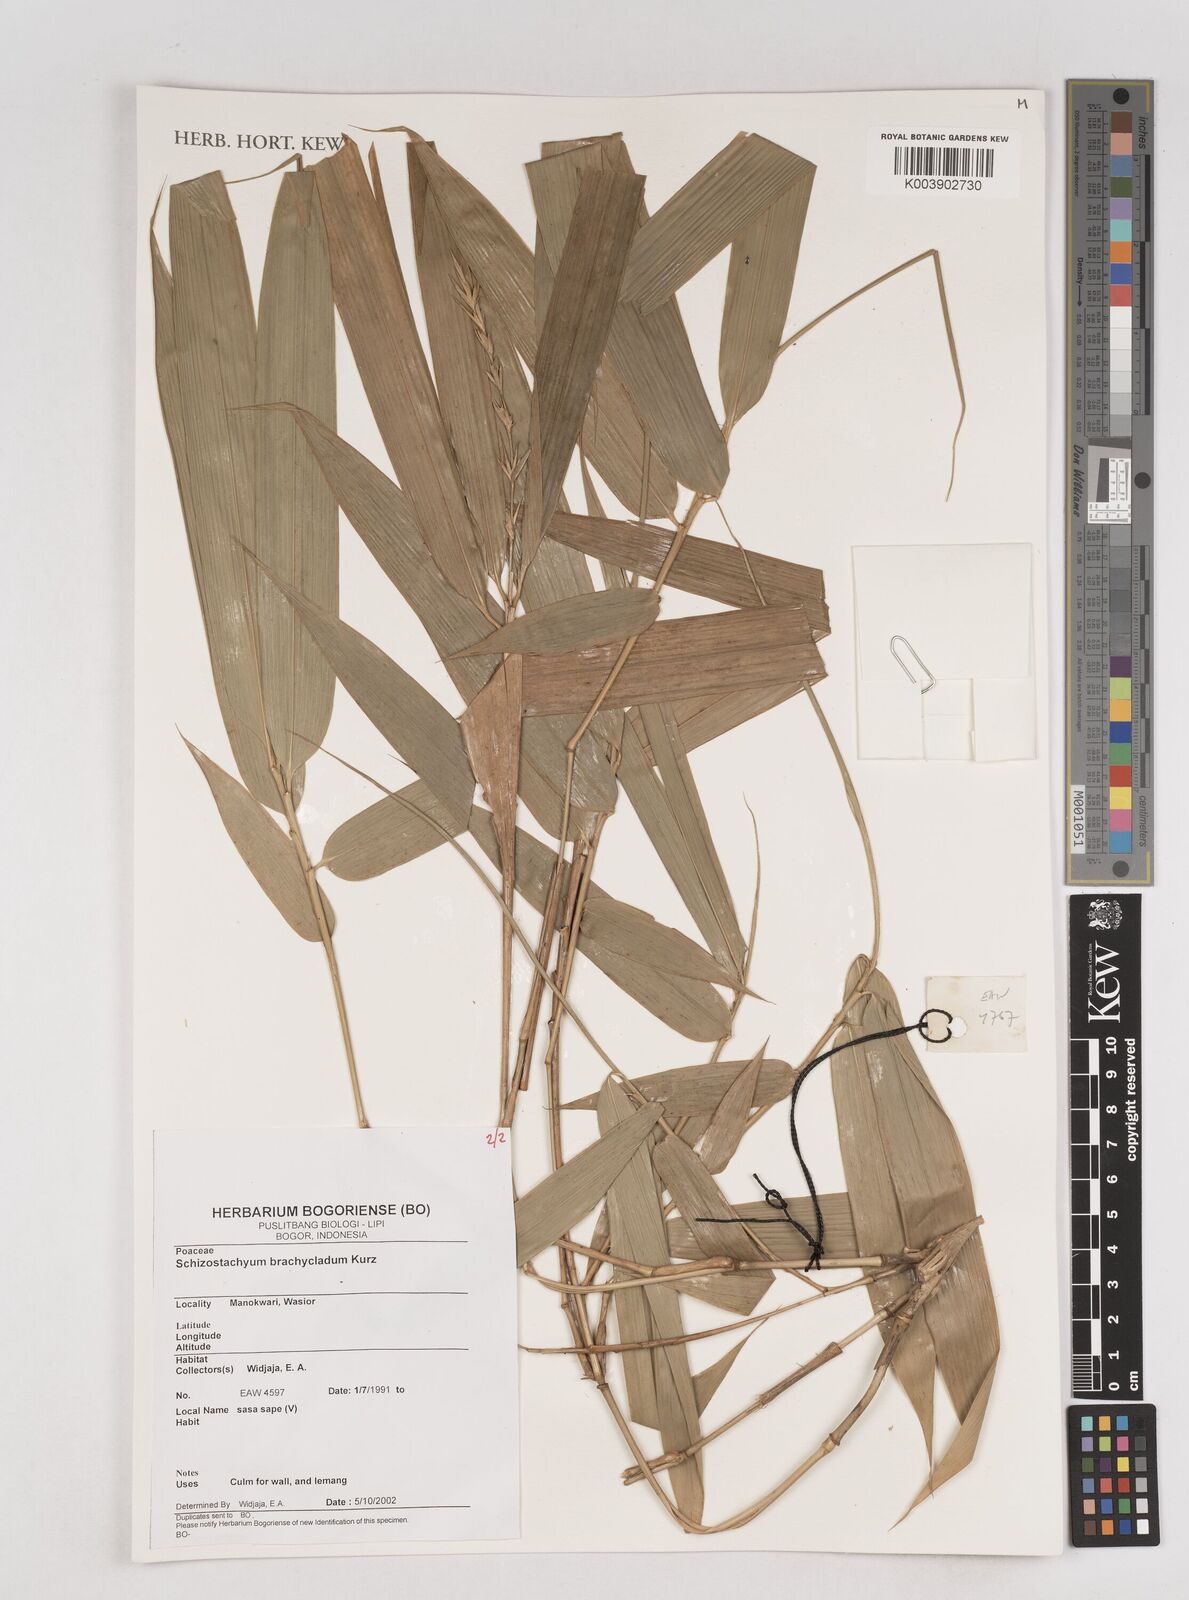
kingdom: Plantae
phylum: Tracheophyta
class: Liliopsida
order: Poales
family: Poaceae
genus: Schizostachyum
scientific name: Schizostachyum brachycladum
